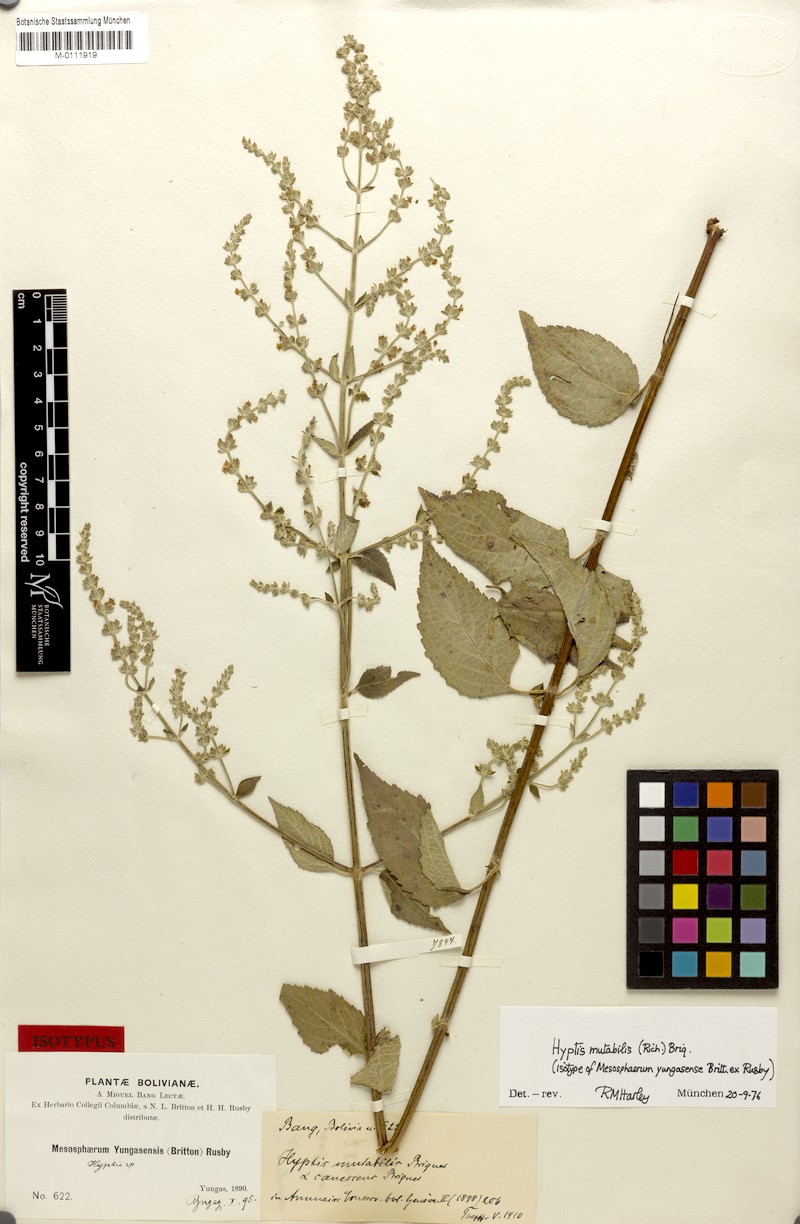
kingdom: Plantae
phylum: Tracheophyta
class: Magnoliopsida
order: Lamiales
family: Lamiaceae
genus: Cantinoa
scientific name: Cantinoa mutabilis
